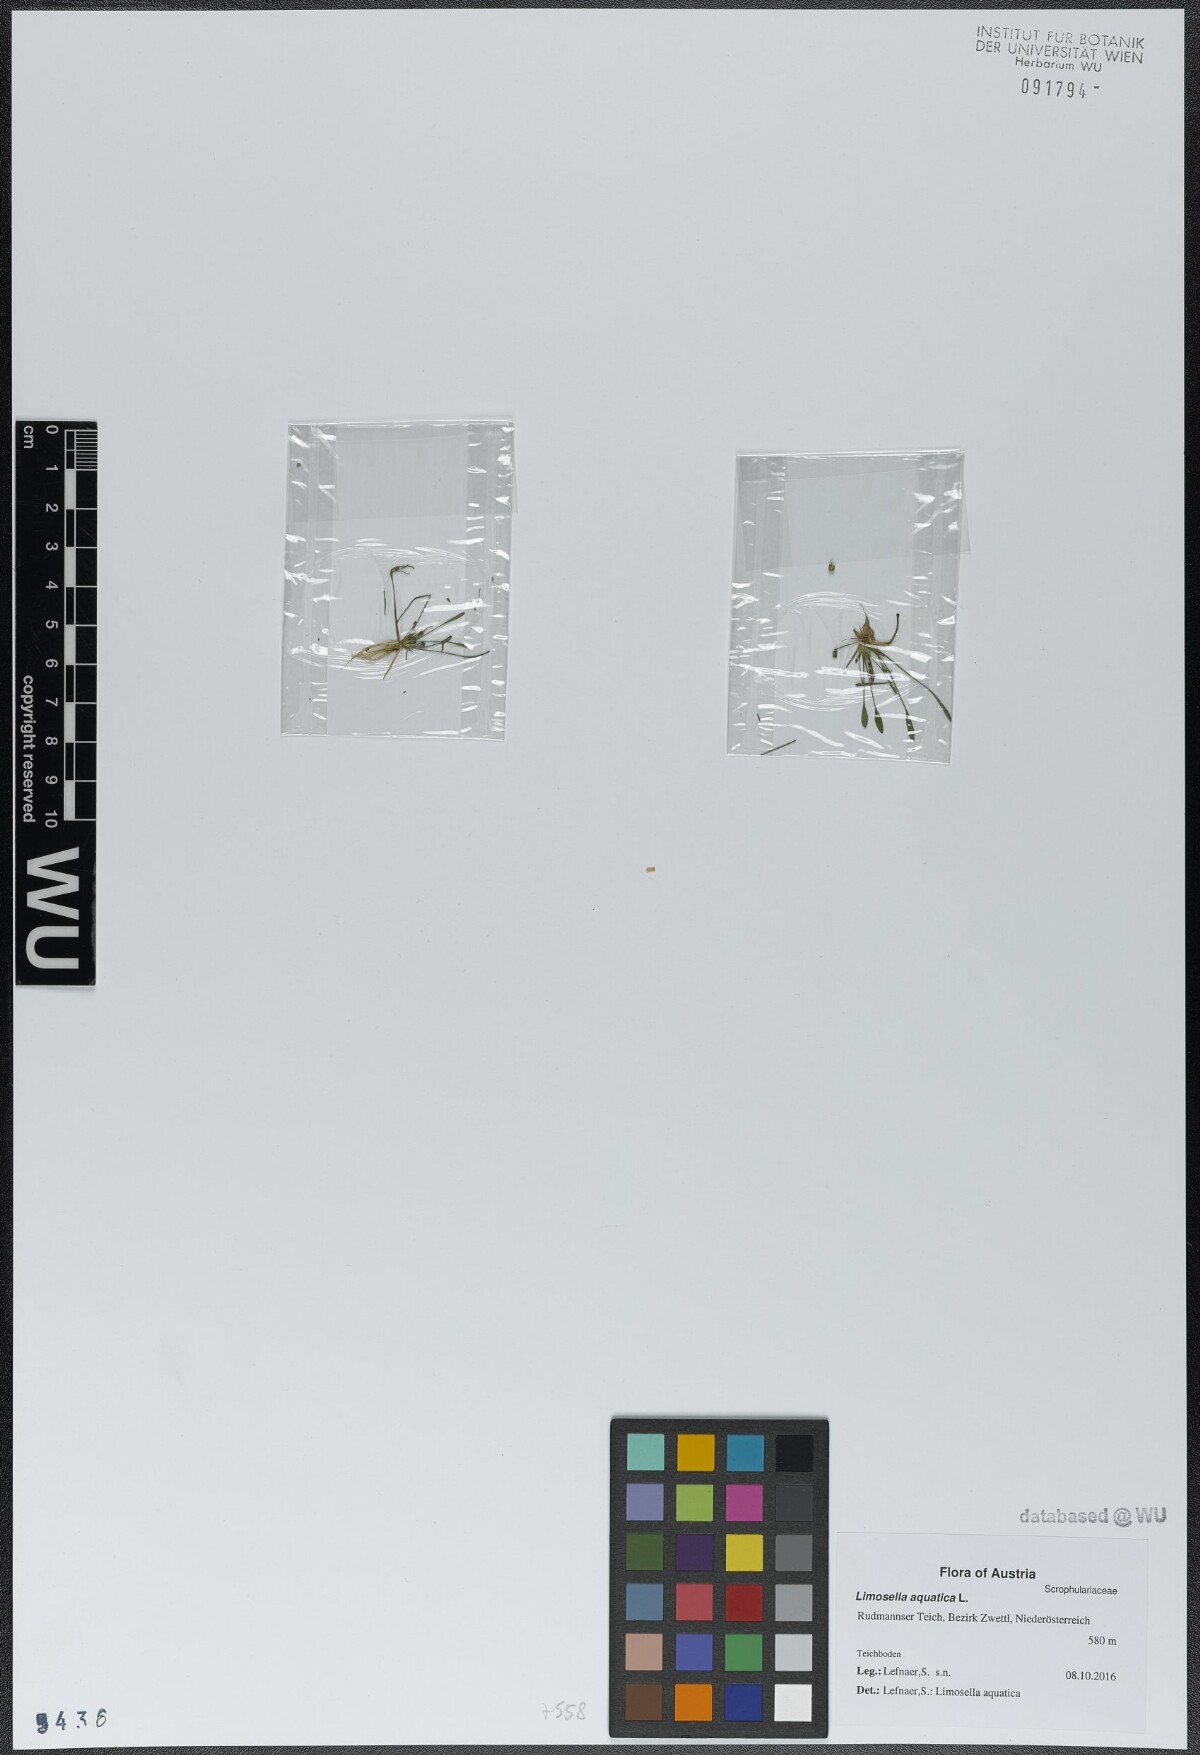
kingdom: Plantae
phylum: Tracheophyta
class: Magnoliopsida
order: Lamiales
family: Scrophulariaceae
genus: Limosella
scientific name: Limosella aquatica
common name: Mudwort
